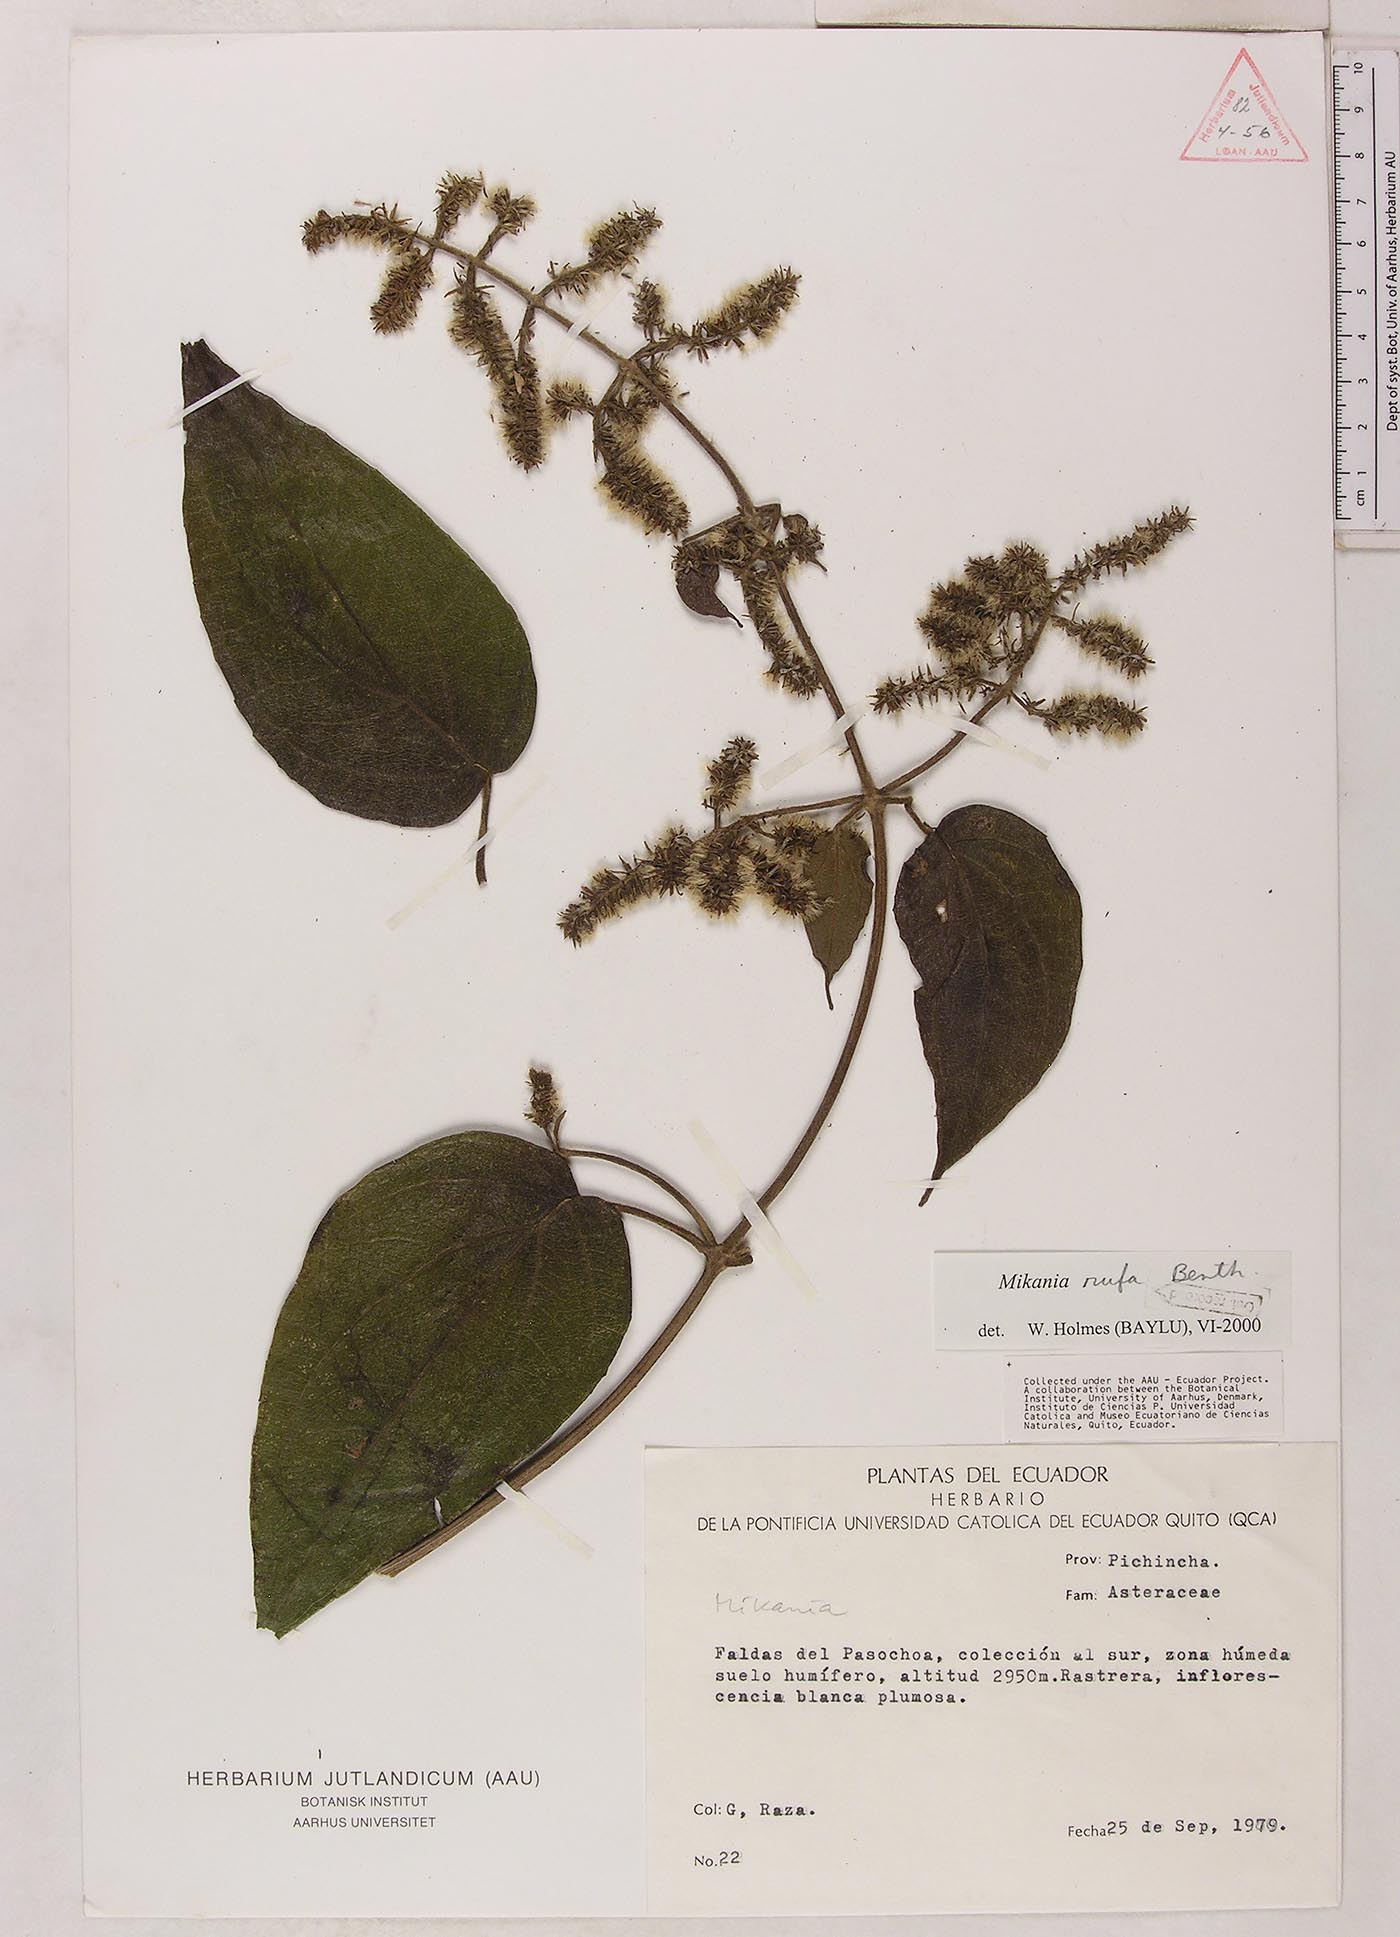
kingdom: Plantae
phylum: Tracheophyta
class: Magnoliopsida
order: Asterales
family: Asteraceae
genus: Mikania
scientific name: Mikania rufa
